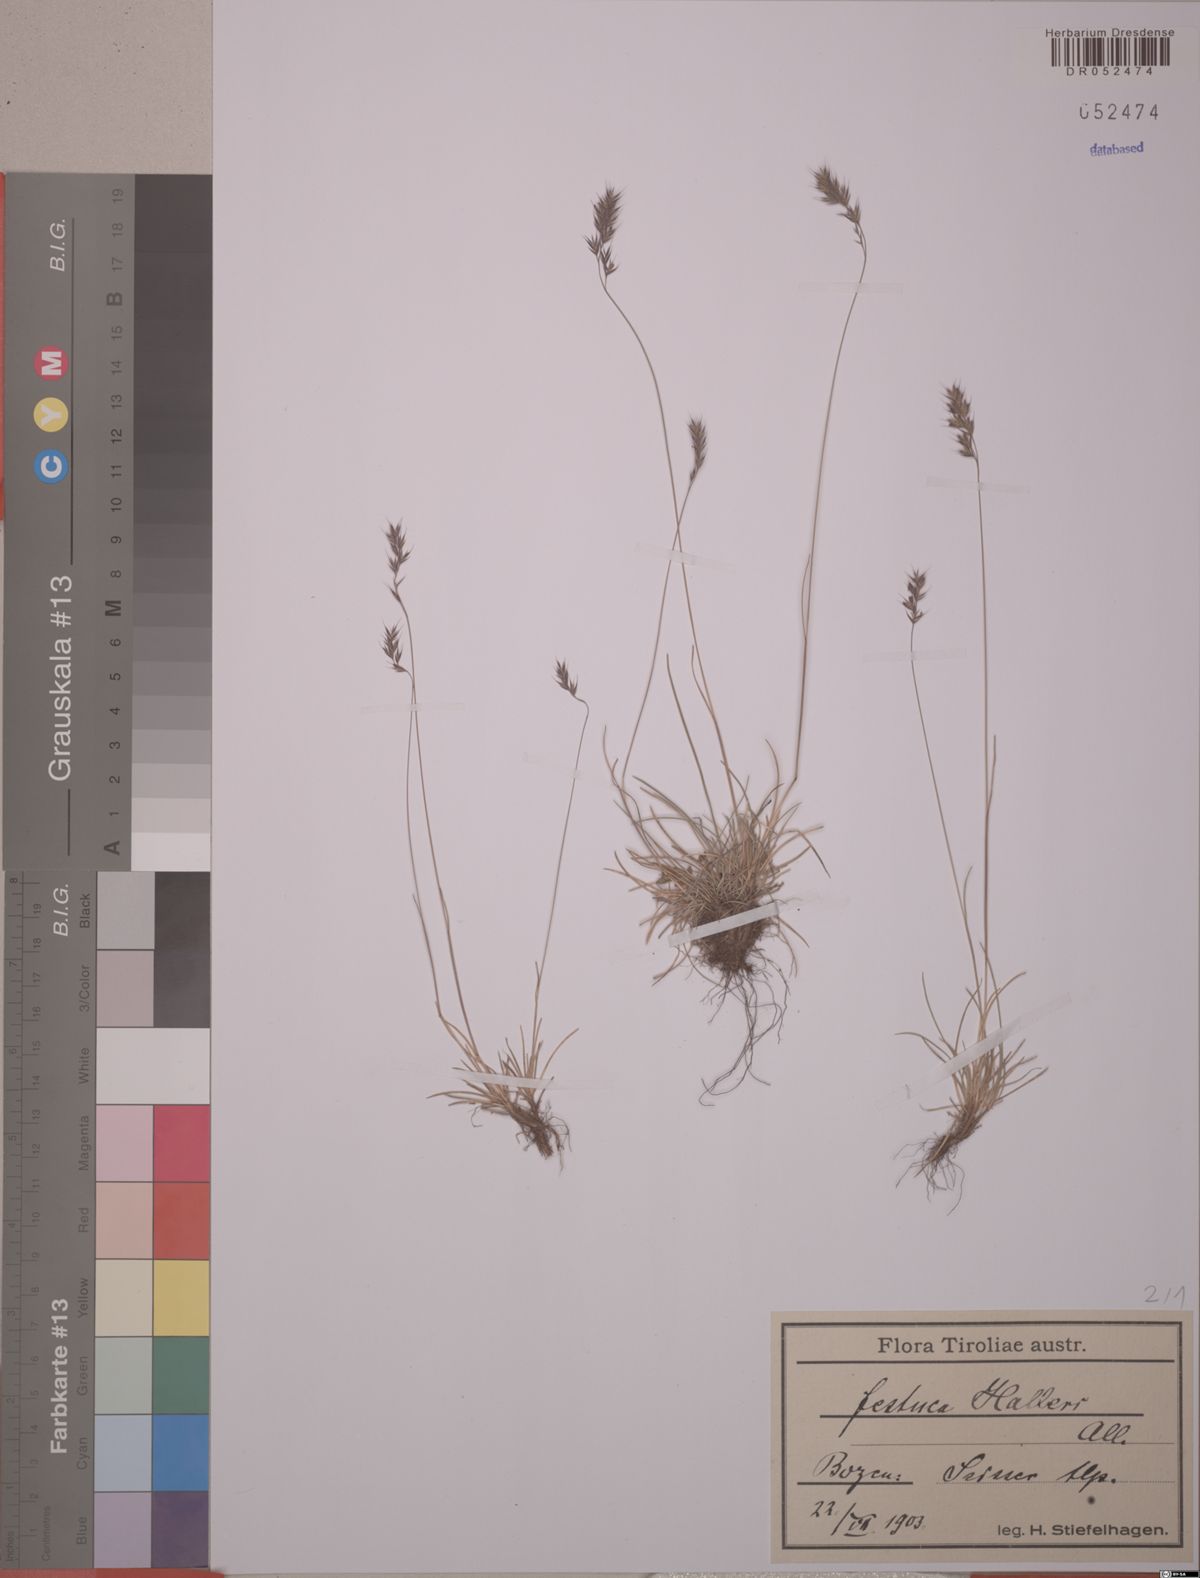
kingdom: Plantae
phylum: Tracheophyta
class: Liliopsida
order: Poales
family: Poaceae
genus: Festuca
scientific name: Festuca halleri
